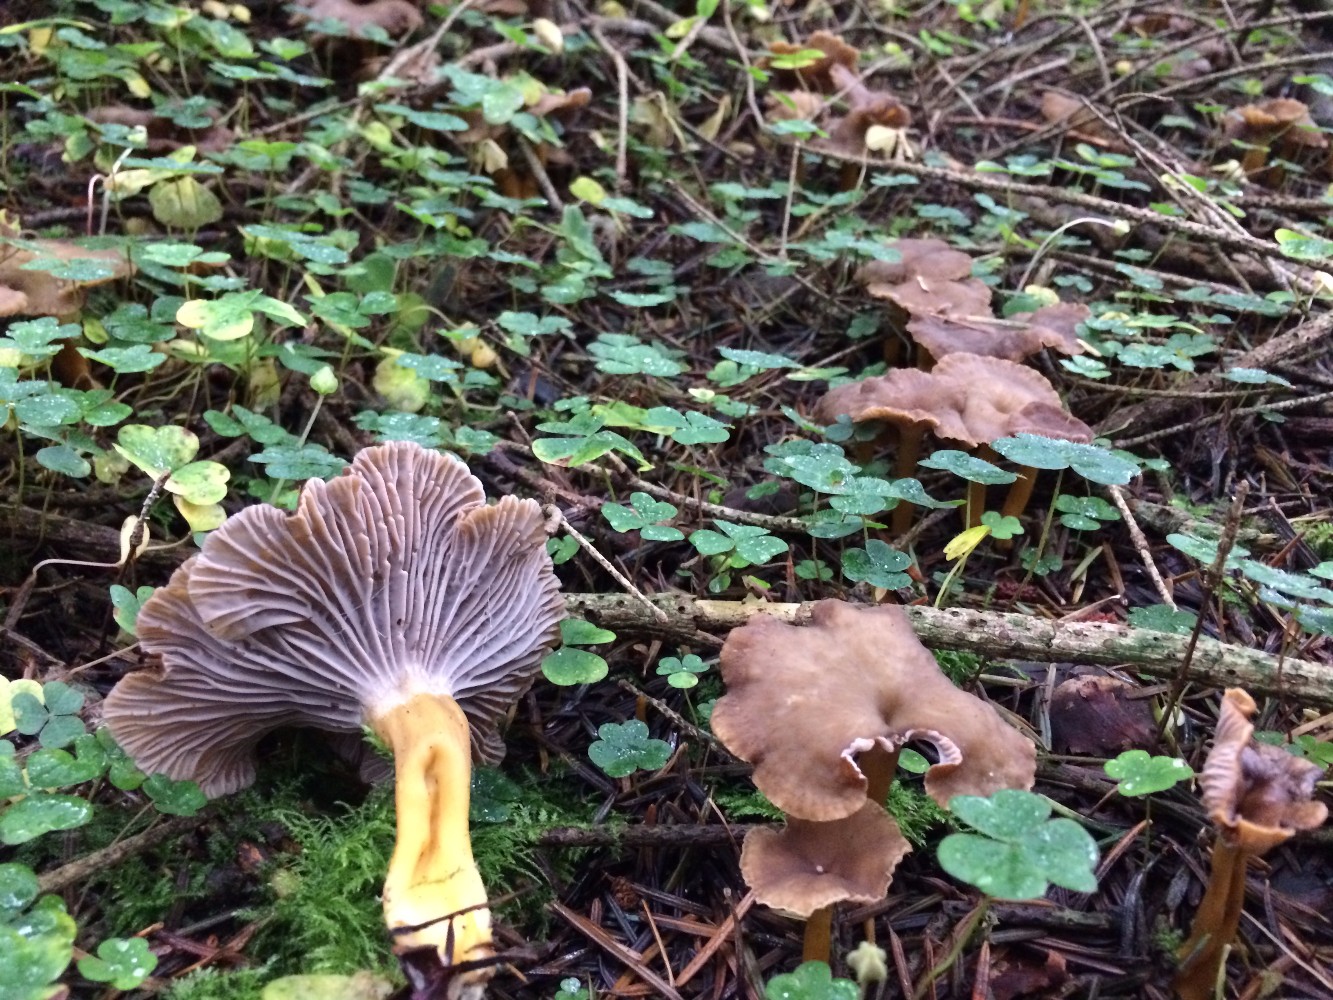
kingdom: Fungi
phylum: Basidiomycota
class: Agaricomycetes
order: Cantharellales
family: Hydnaceae
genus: Craterellus
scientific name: Craterellus tubaeformis
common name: tragt-kantarel
